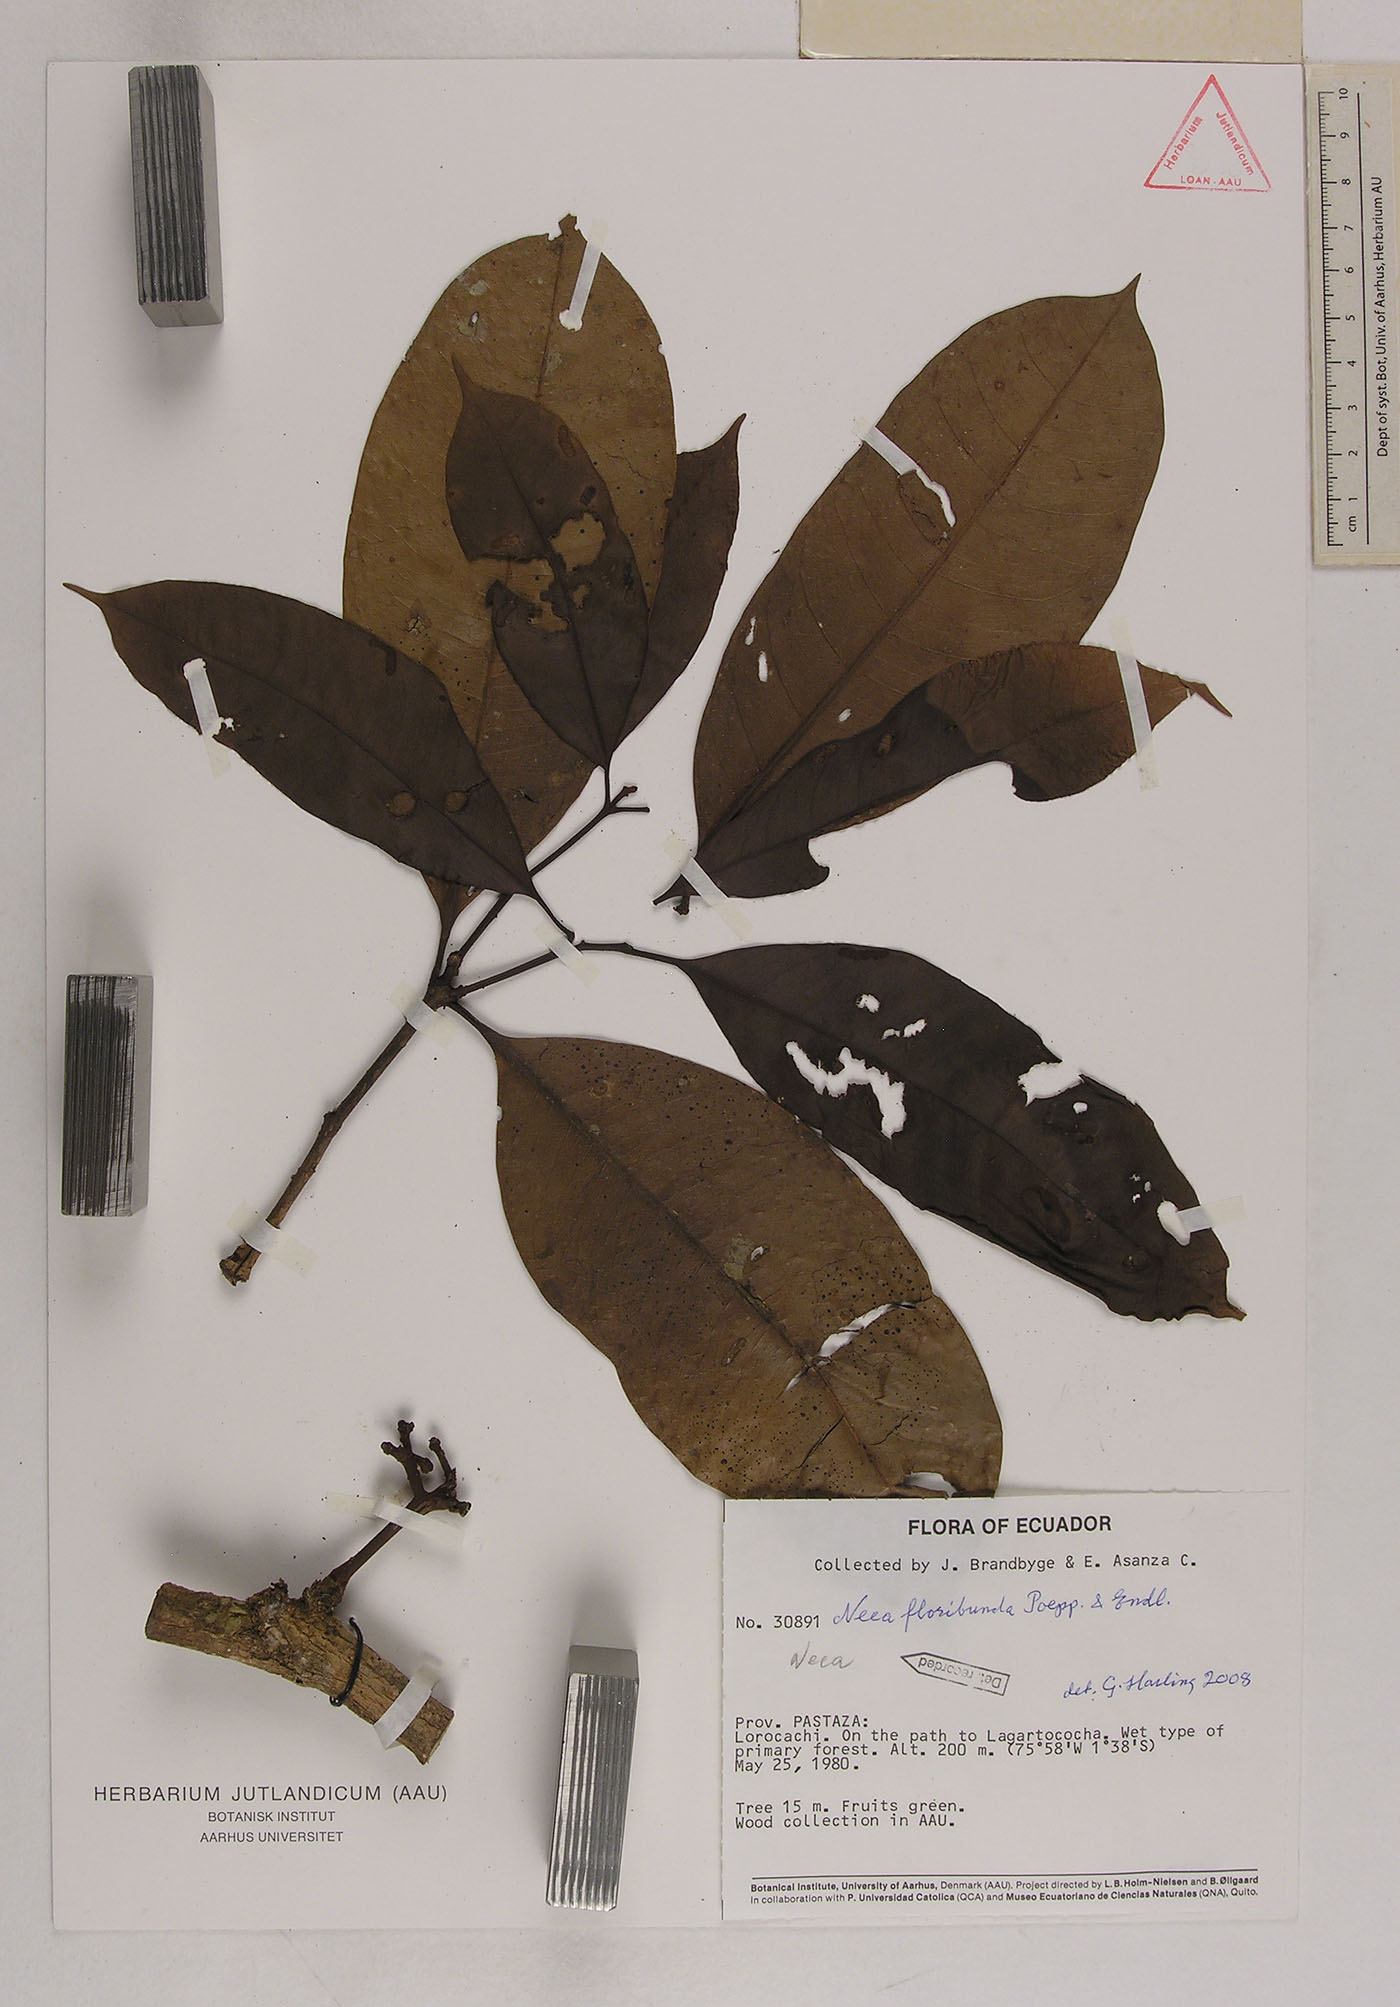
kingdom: Plantae
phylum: Tracheophyta
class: Magnoliopsida
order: Caryophyllales
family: Nyctaginaceae
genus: Neea
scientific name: Neea floribunda
